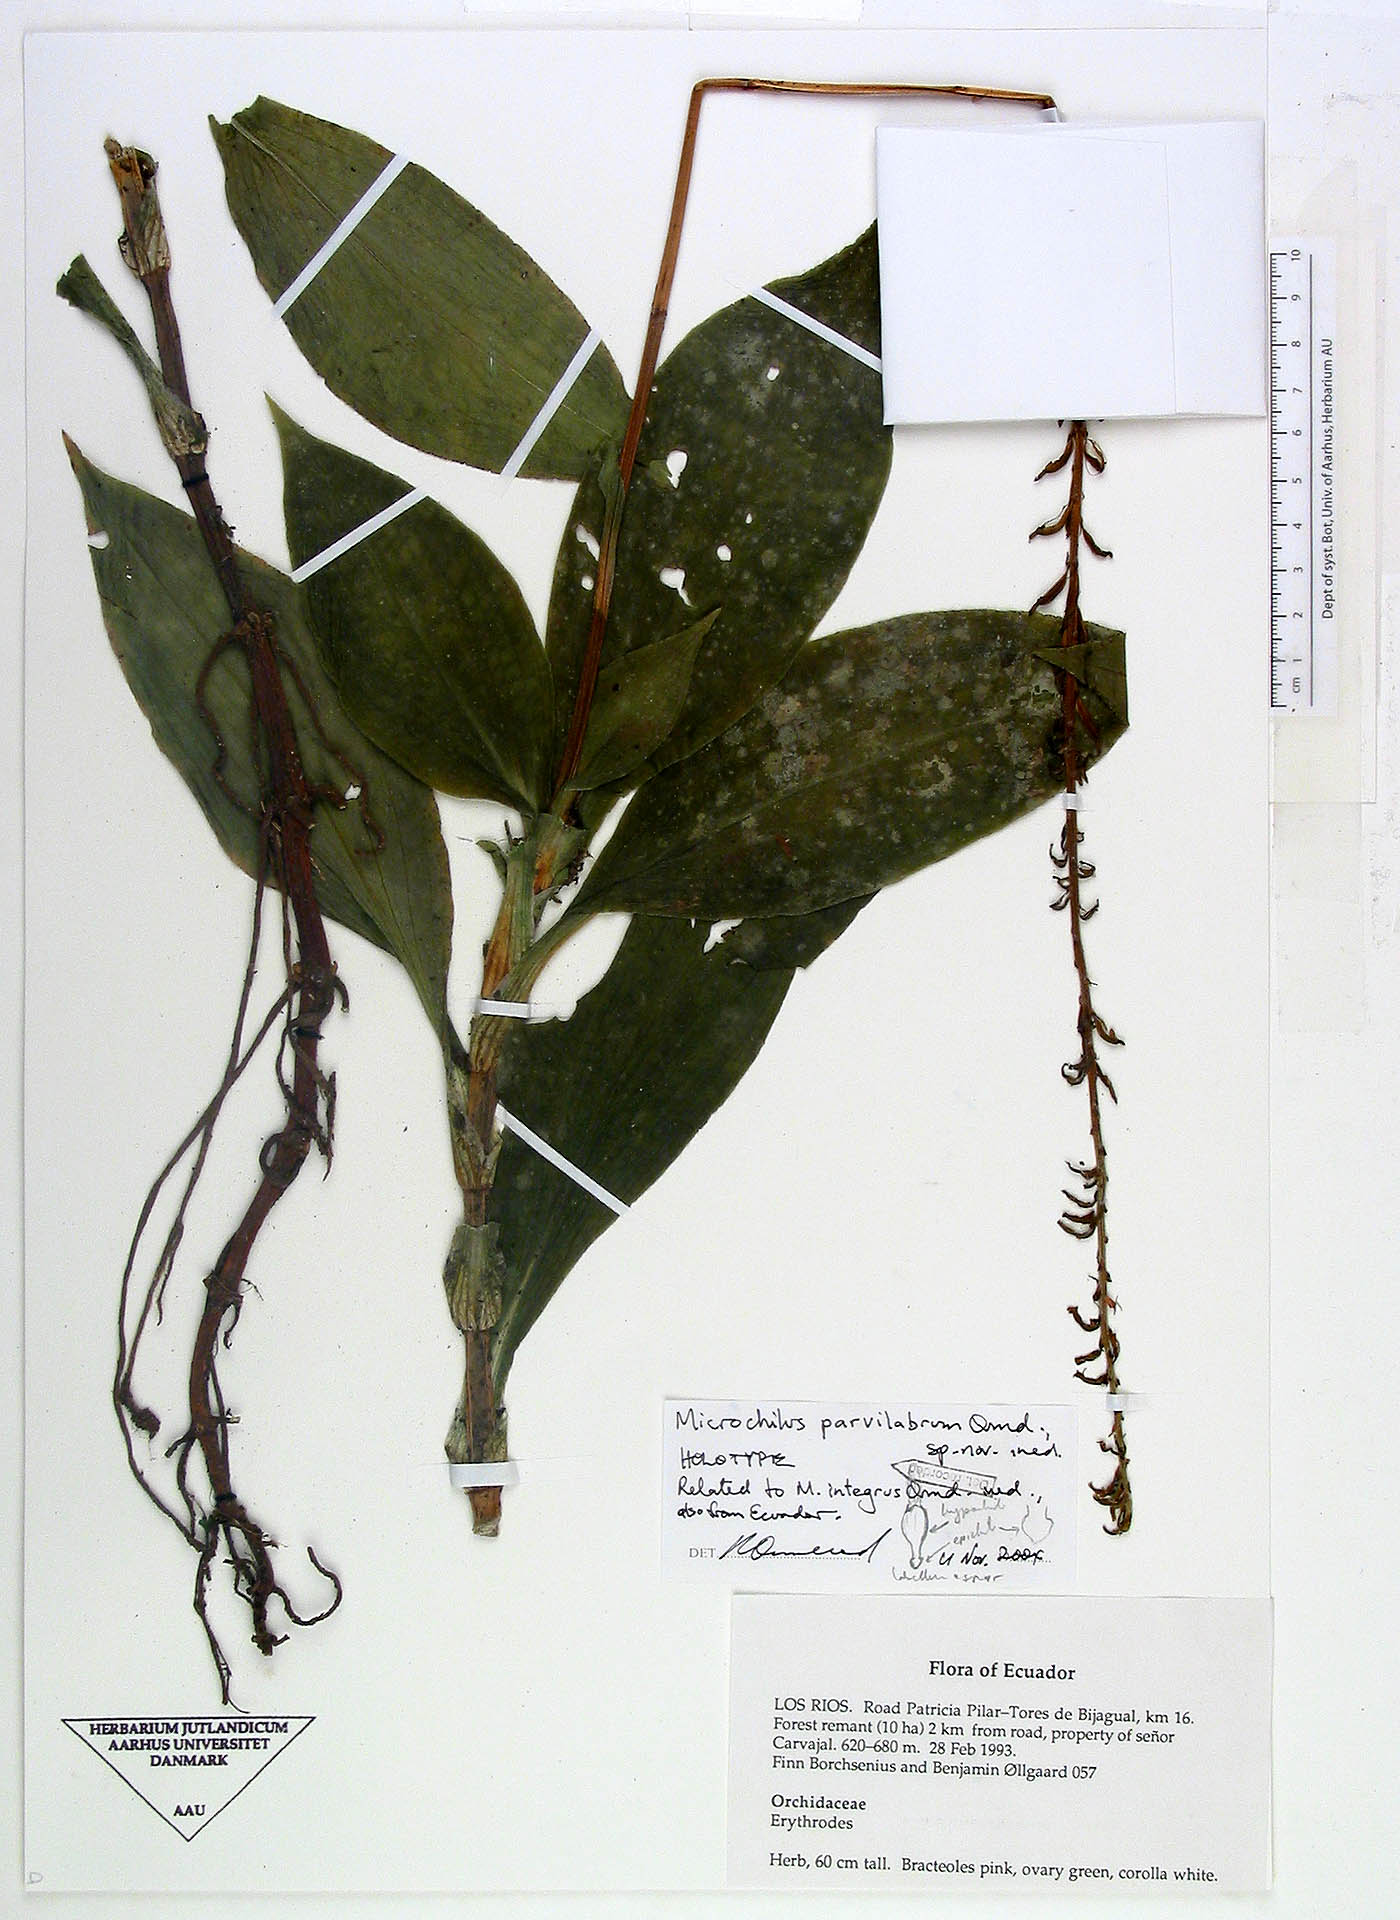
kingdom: Plantae
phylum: Tracheophyta
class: Liliopsida
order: Asparagales
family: Orchidaceae
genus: Microchilus
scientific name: Microchilus parvilabrum
